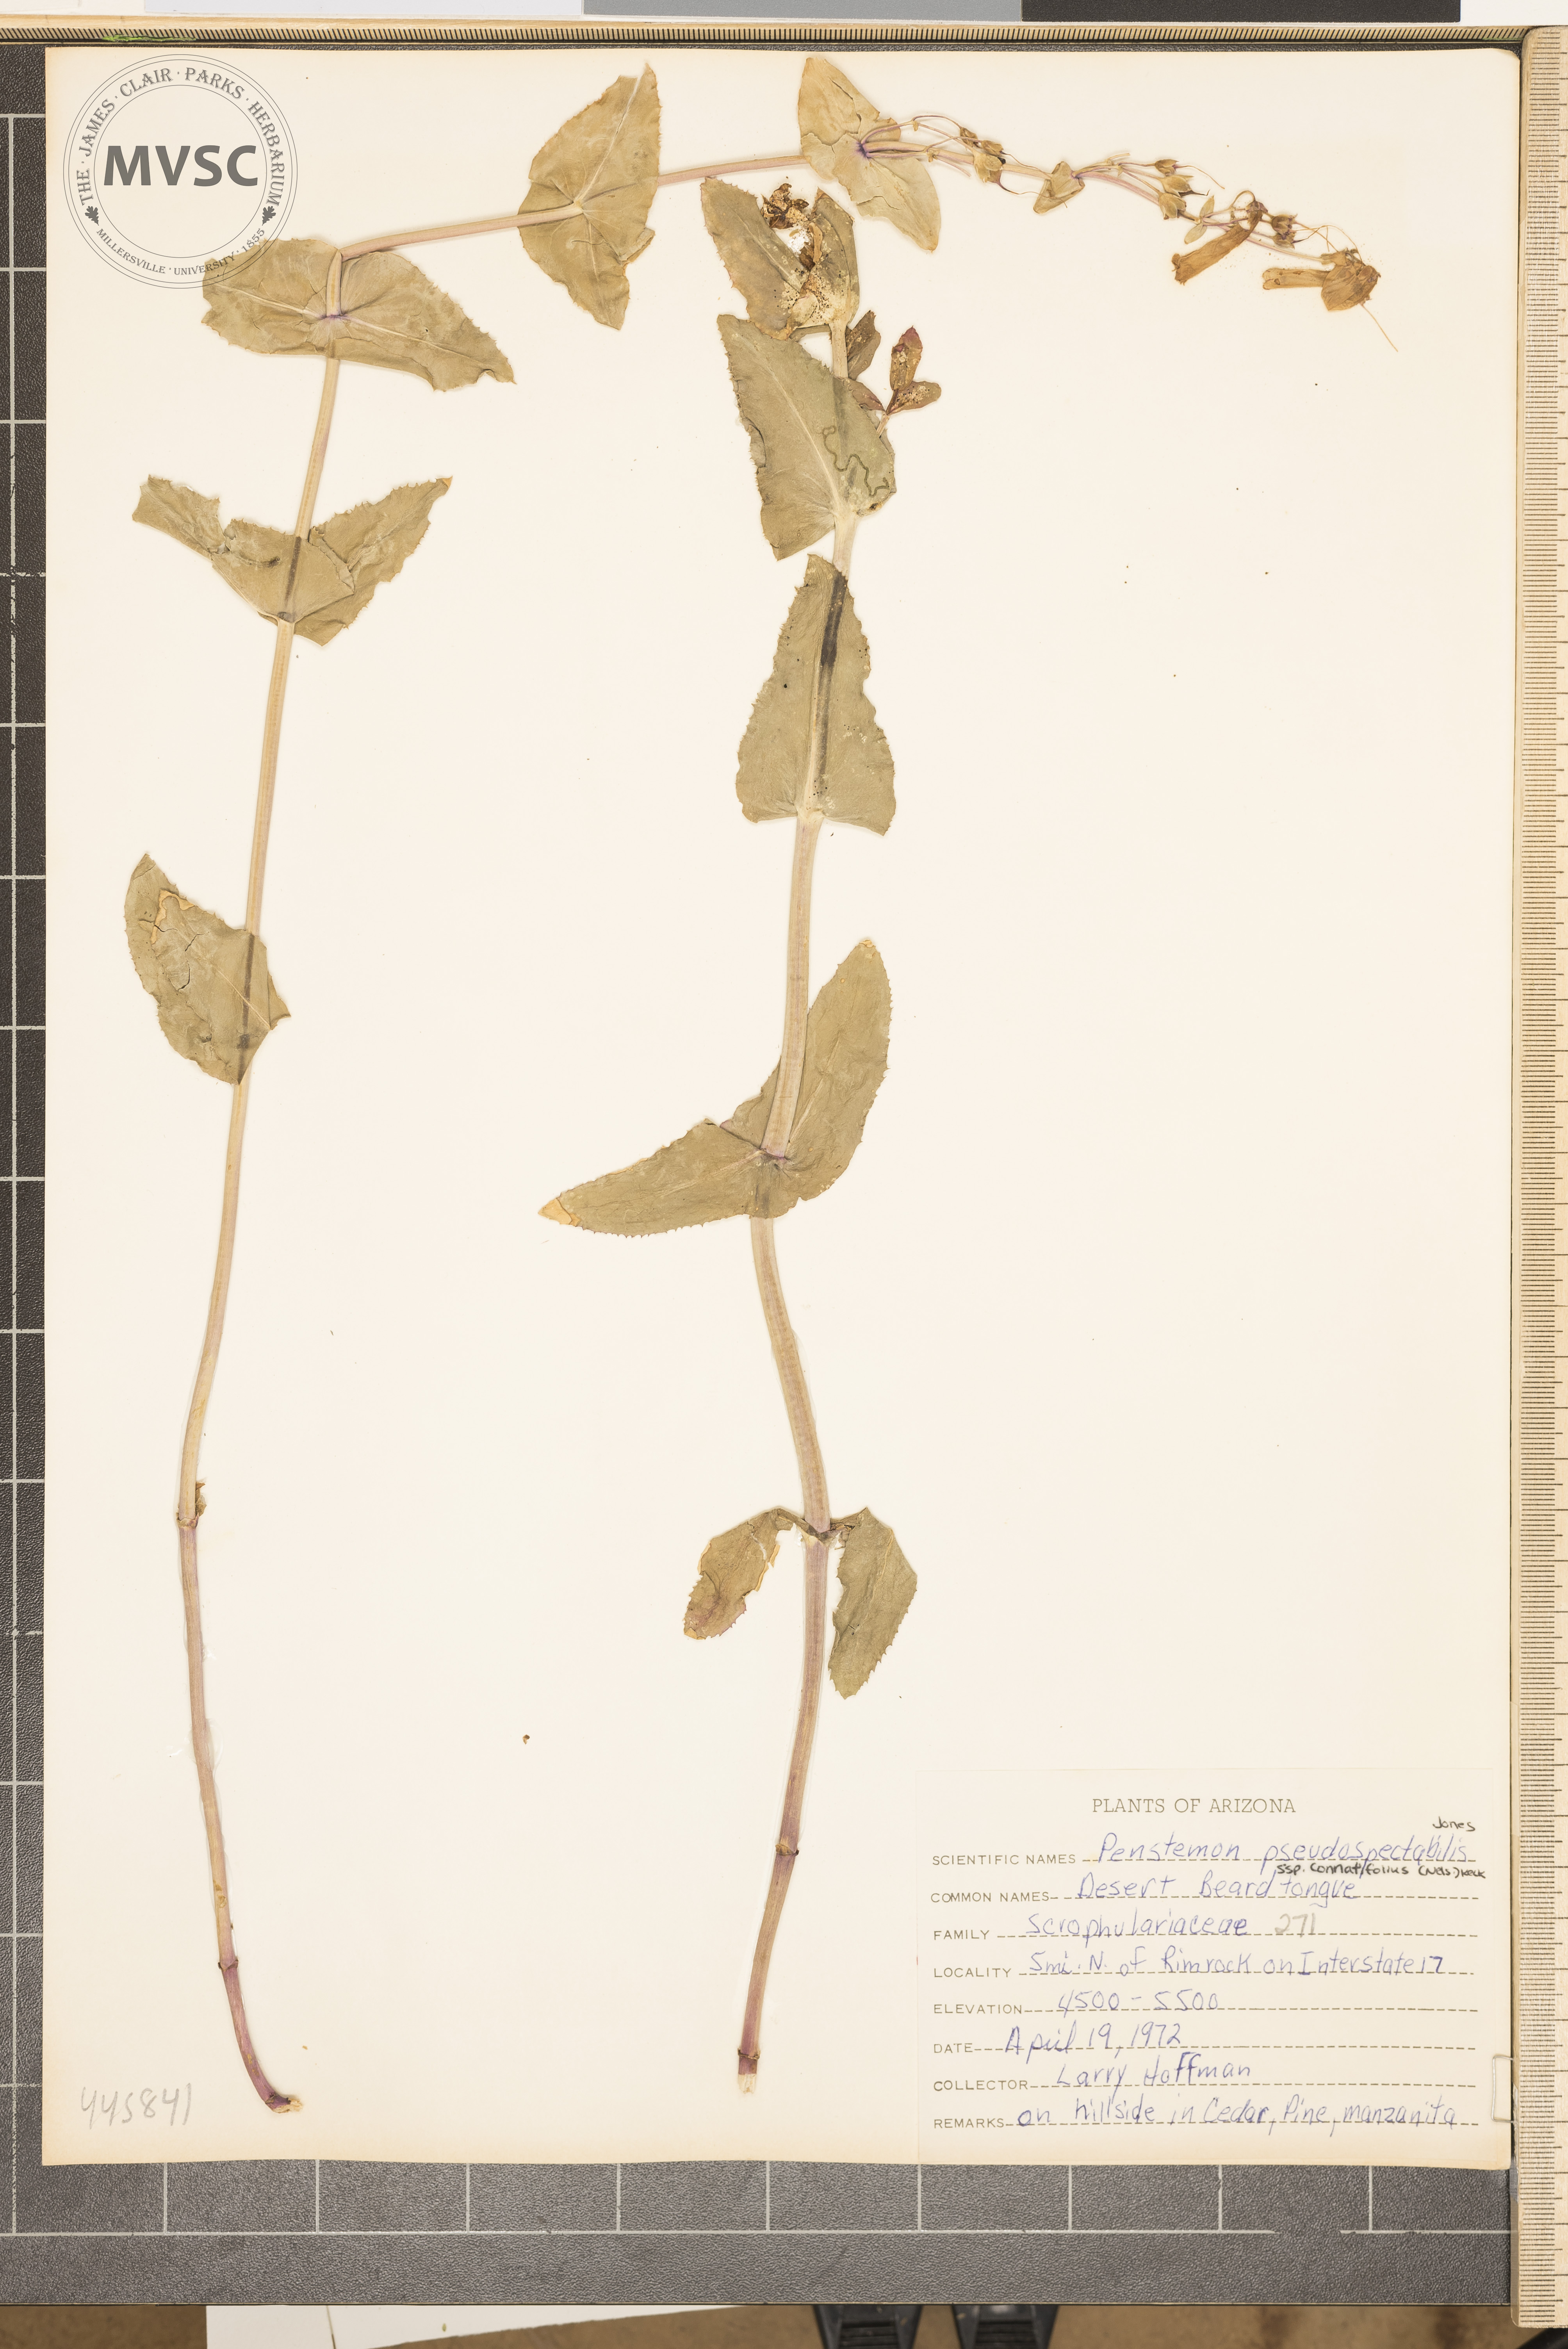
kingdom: Plantae
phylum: Tracheophyta
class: Magnoliopsida
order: Lamiales
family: Plantaginaceae
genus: Penstemon
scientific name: Penstemon pseudospectabilis
